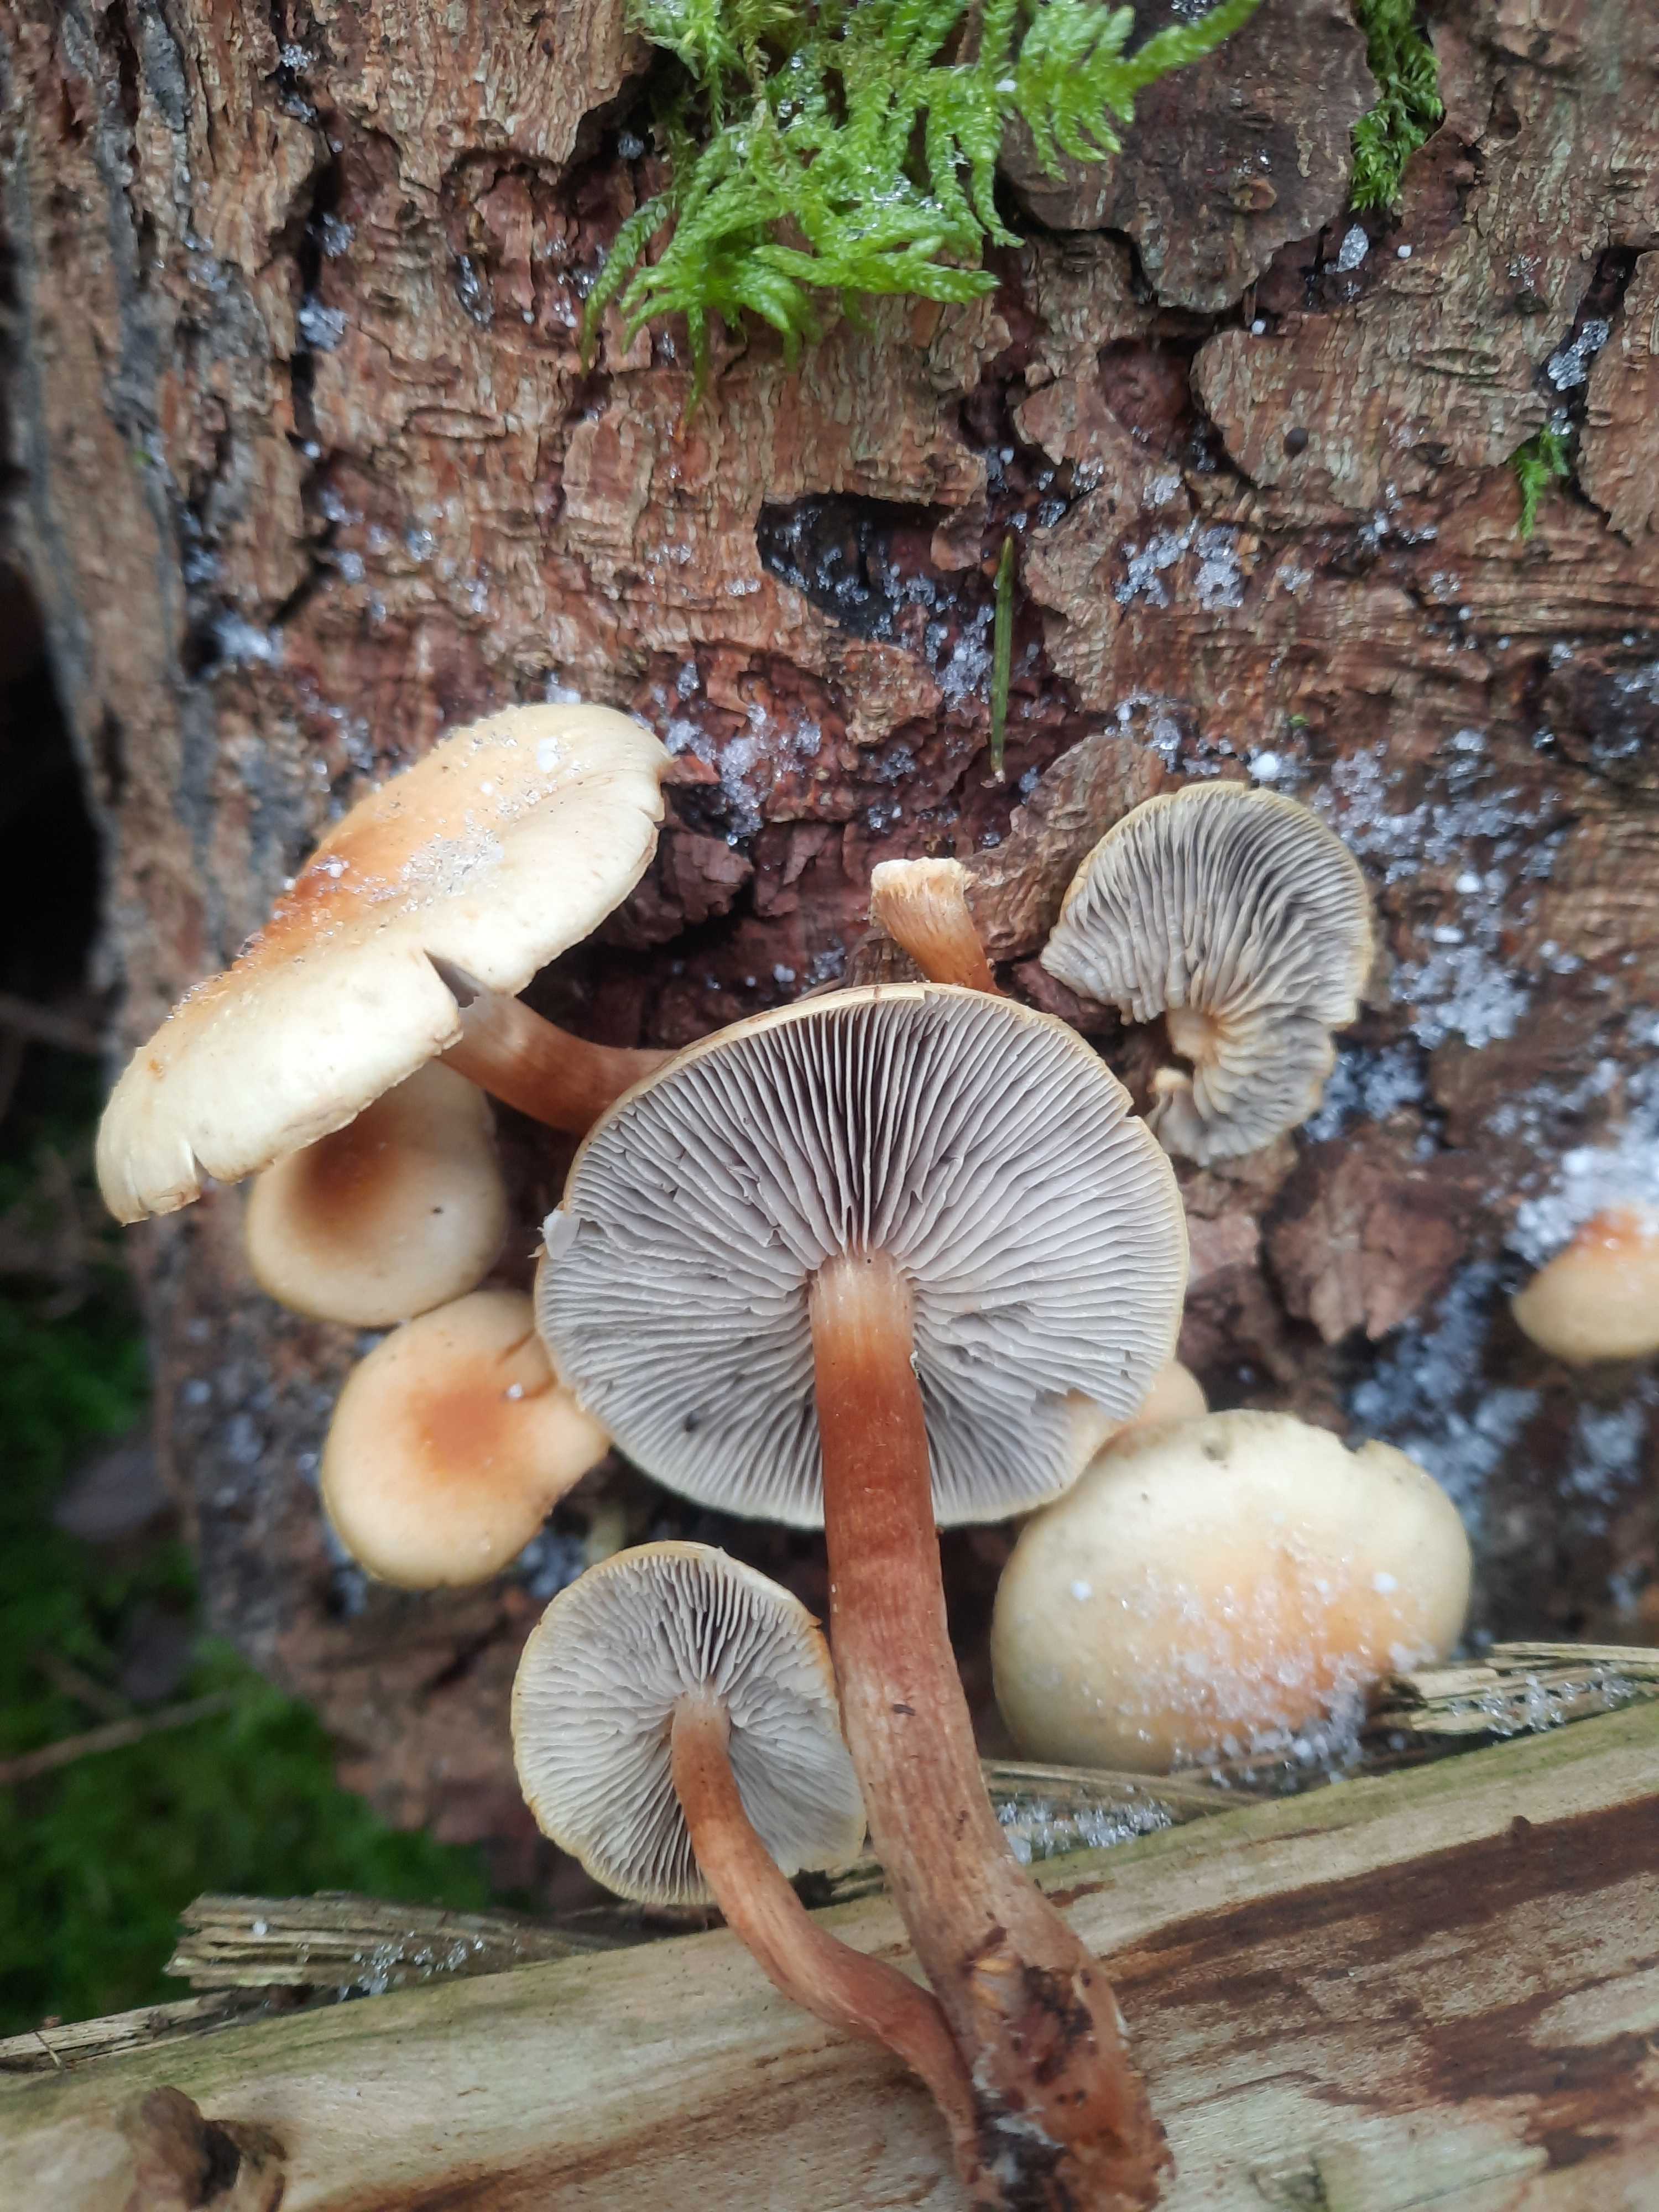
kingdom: Fungi
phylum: Basidiomycota
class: Agaricomycetes
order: Agaricales
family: Strophariaceae
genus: Hypholoma
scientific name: Hypholoma capnoides
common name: gran-svovlhat
